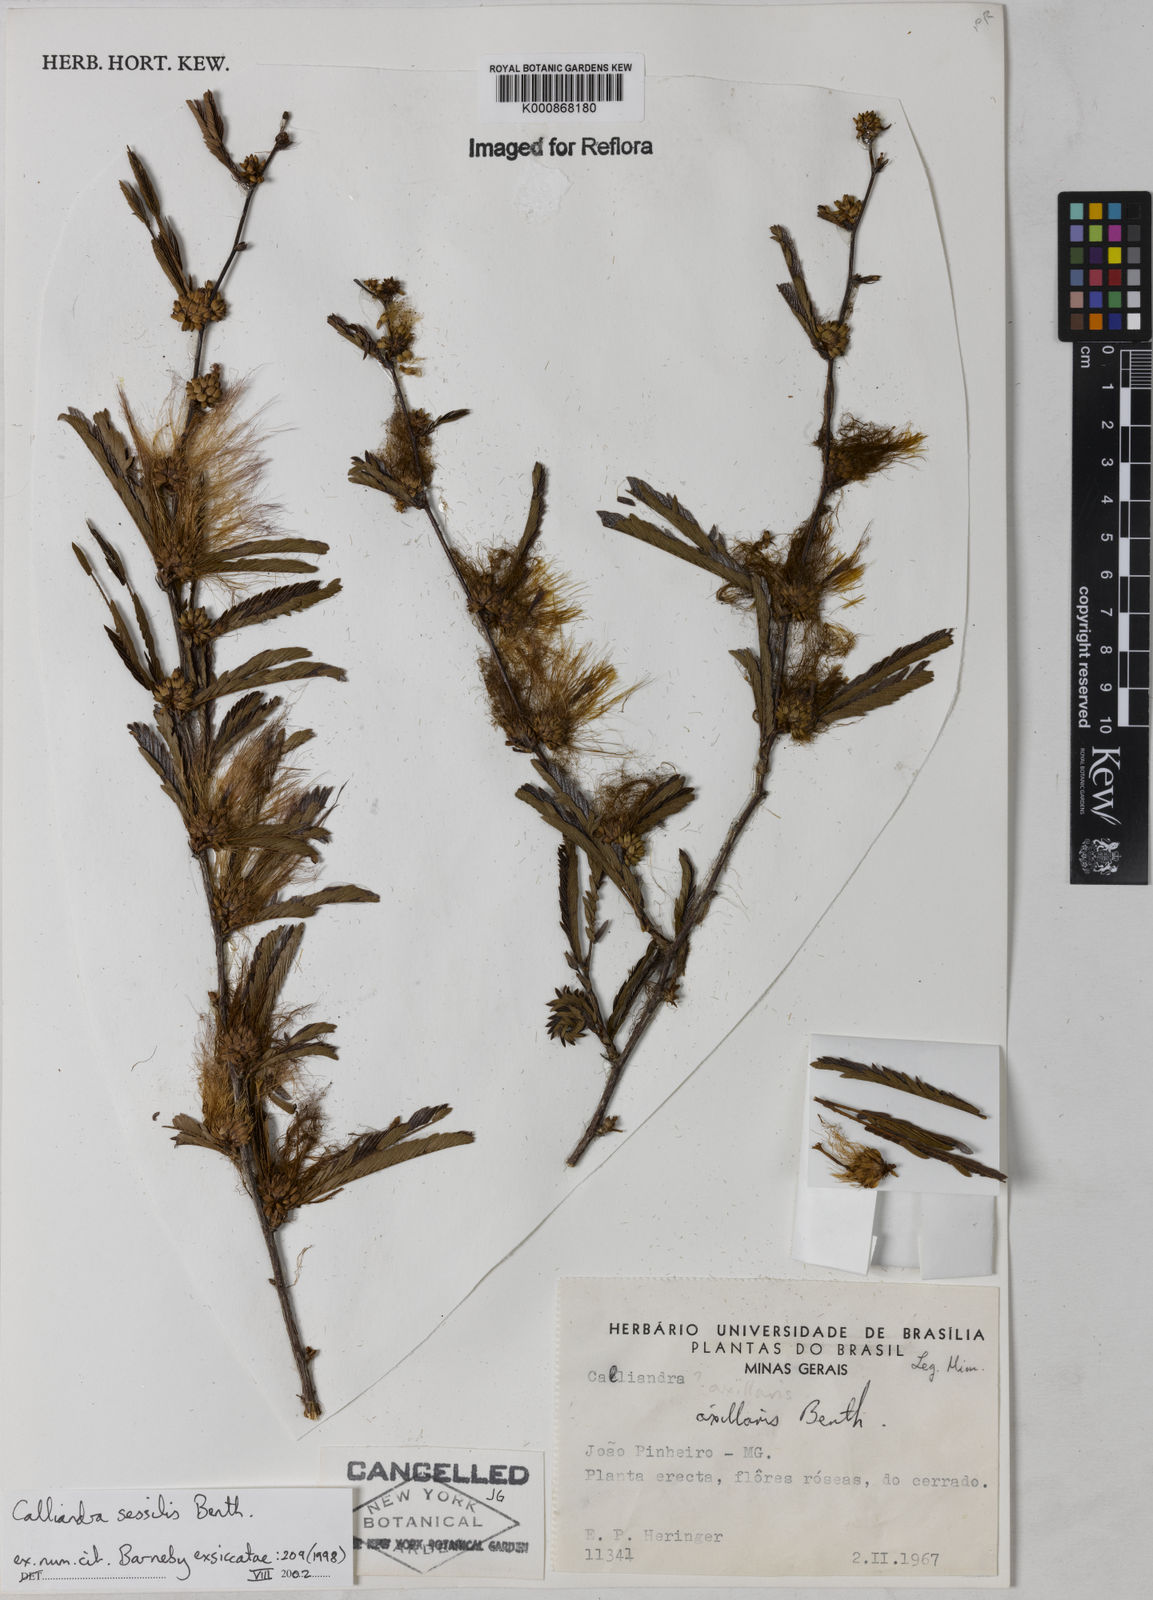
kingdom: Plantae
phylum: Tracheophyta
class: Magnoliopsida
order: Fabales
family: Fabaceae
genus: Calliandra
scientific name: Calliandra sessilis
